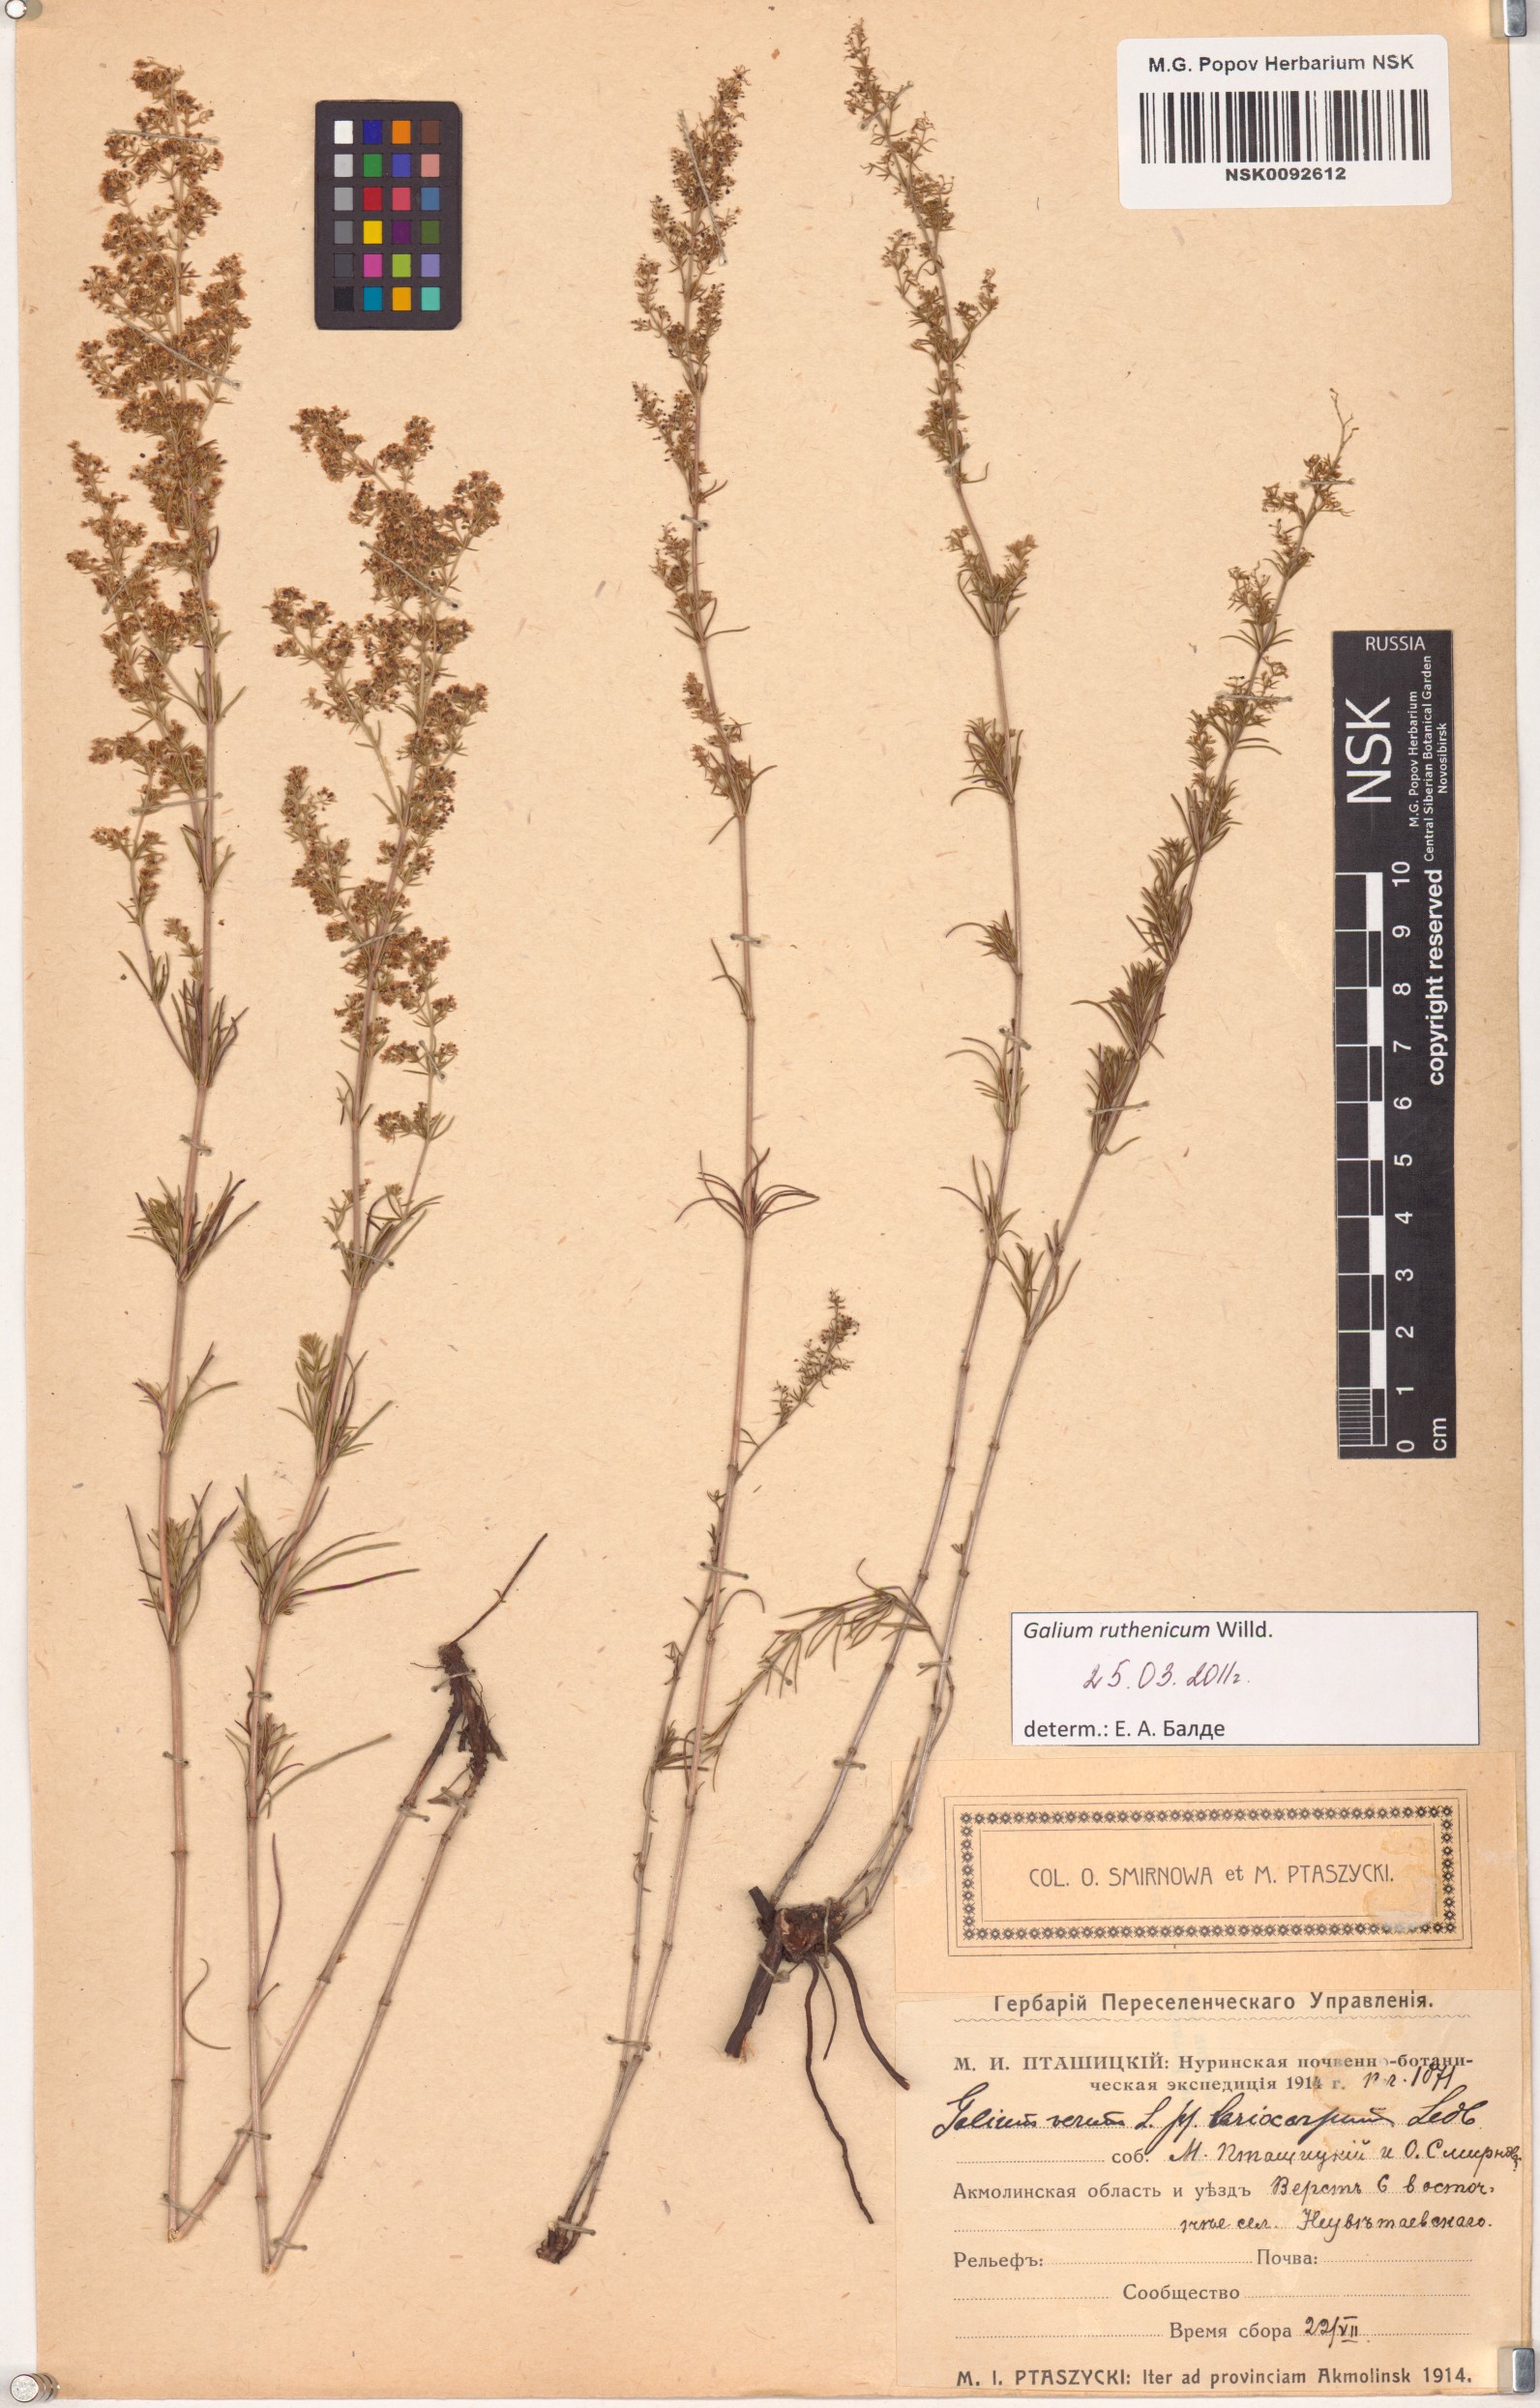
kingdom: Plantae
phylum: Tracheophyta
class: Magnoliopsida
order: Gentianales
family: Rubiaceae
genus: Galium
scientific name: Galium verum
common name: Lady's bedstraw
